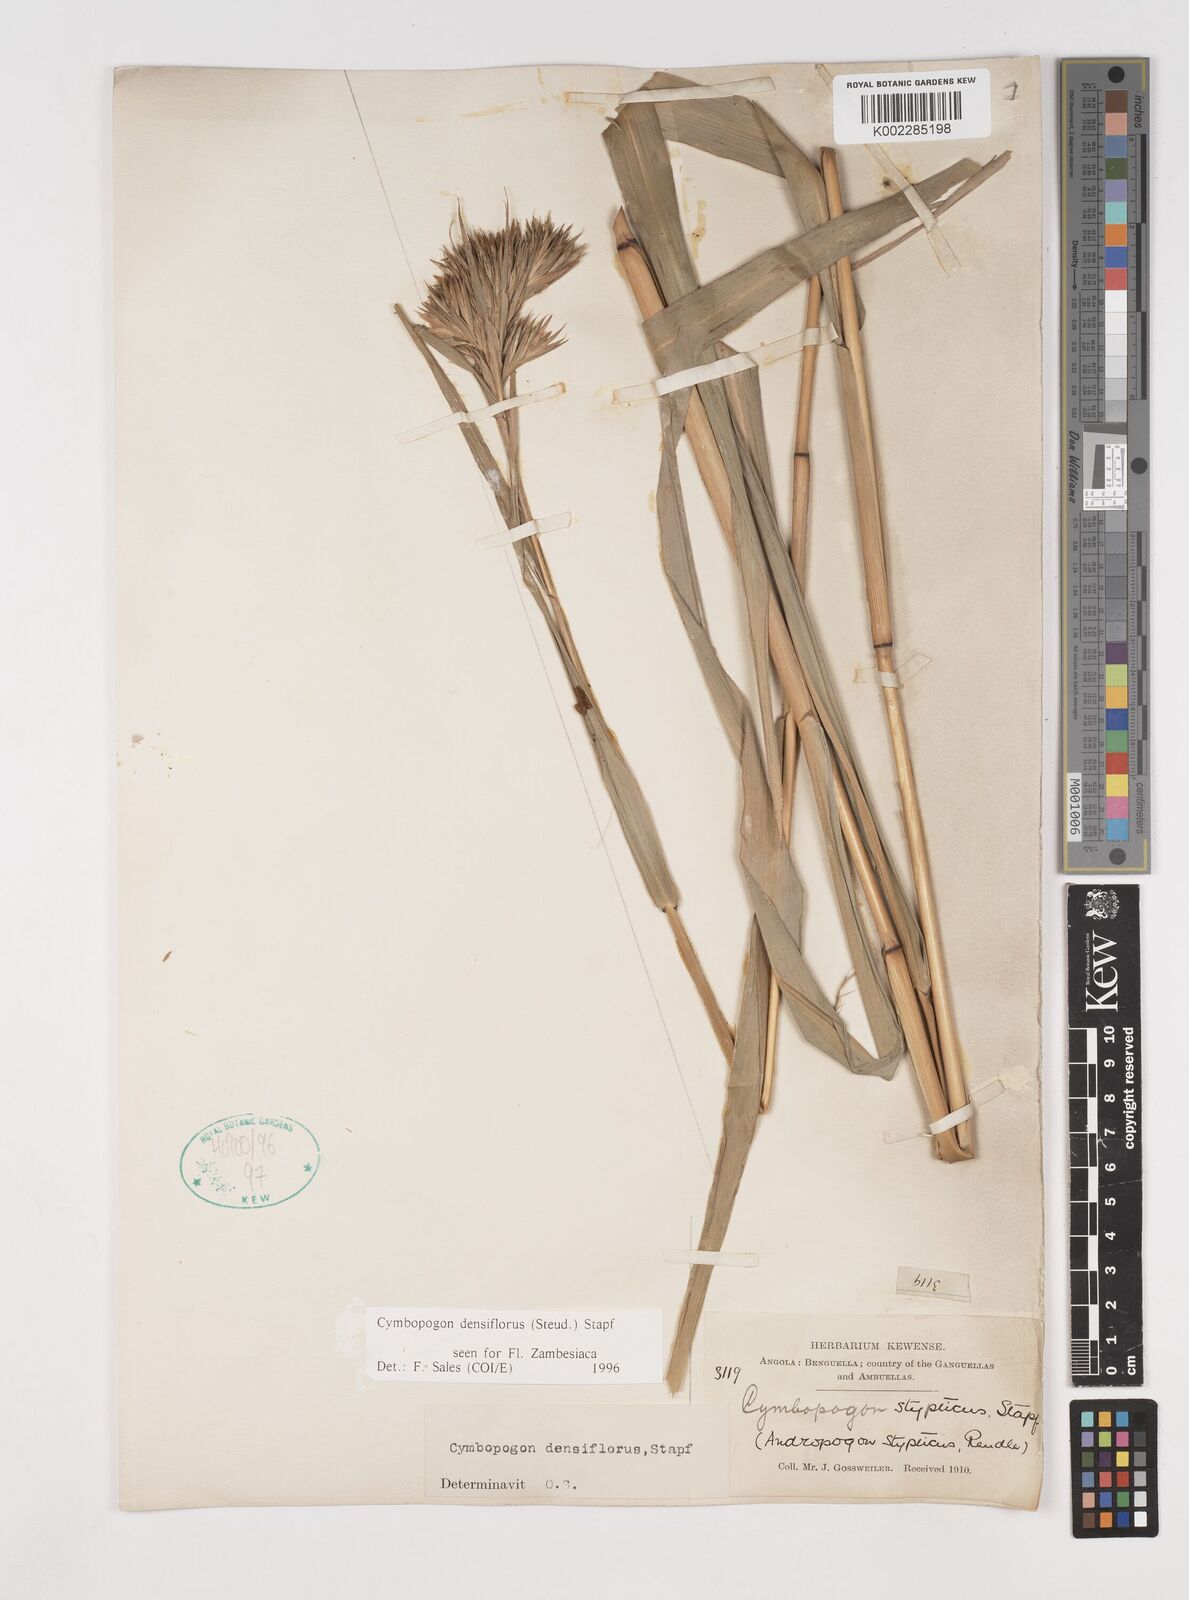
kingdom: Plantae
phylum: Tracheophyta
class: Liliopsida
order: Poales
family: Poaceae
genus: Cymbopogon
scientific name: Cymbopogon densiflorus
